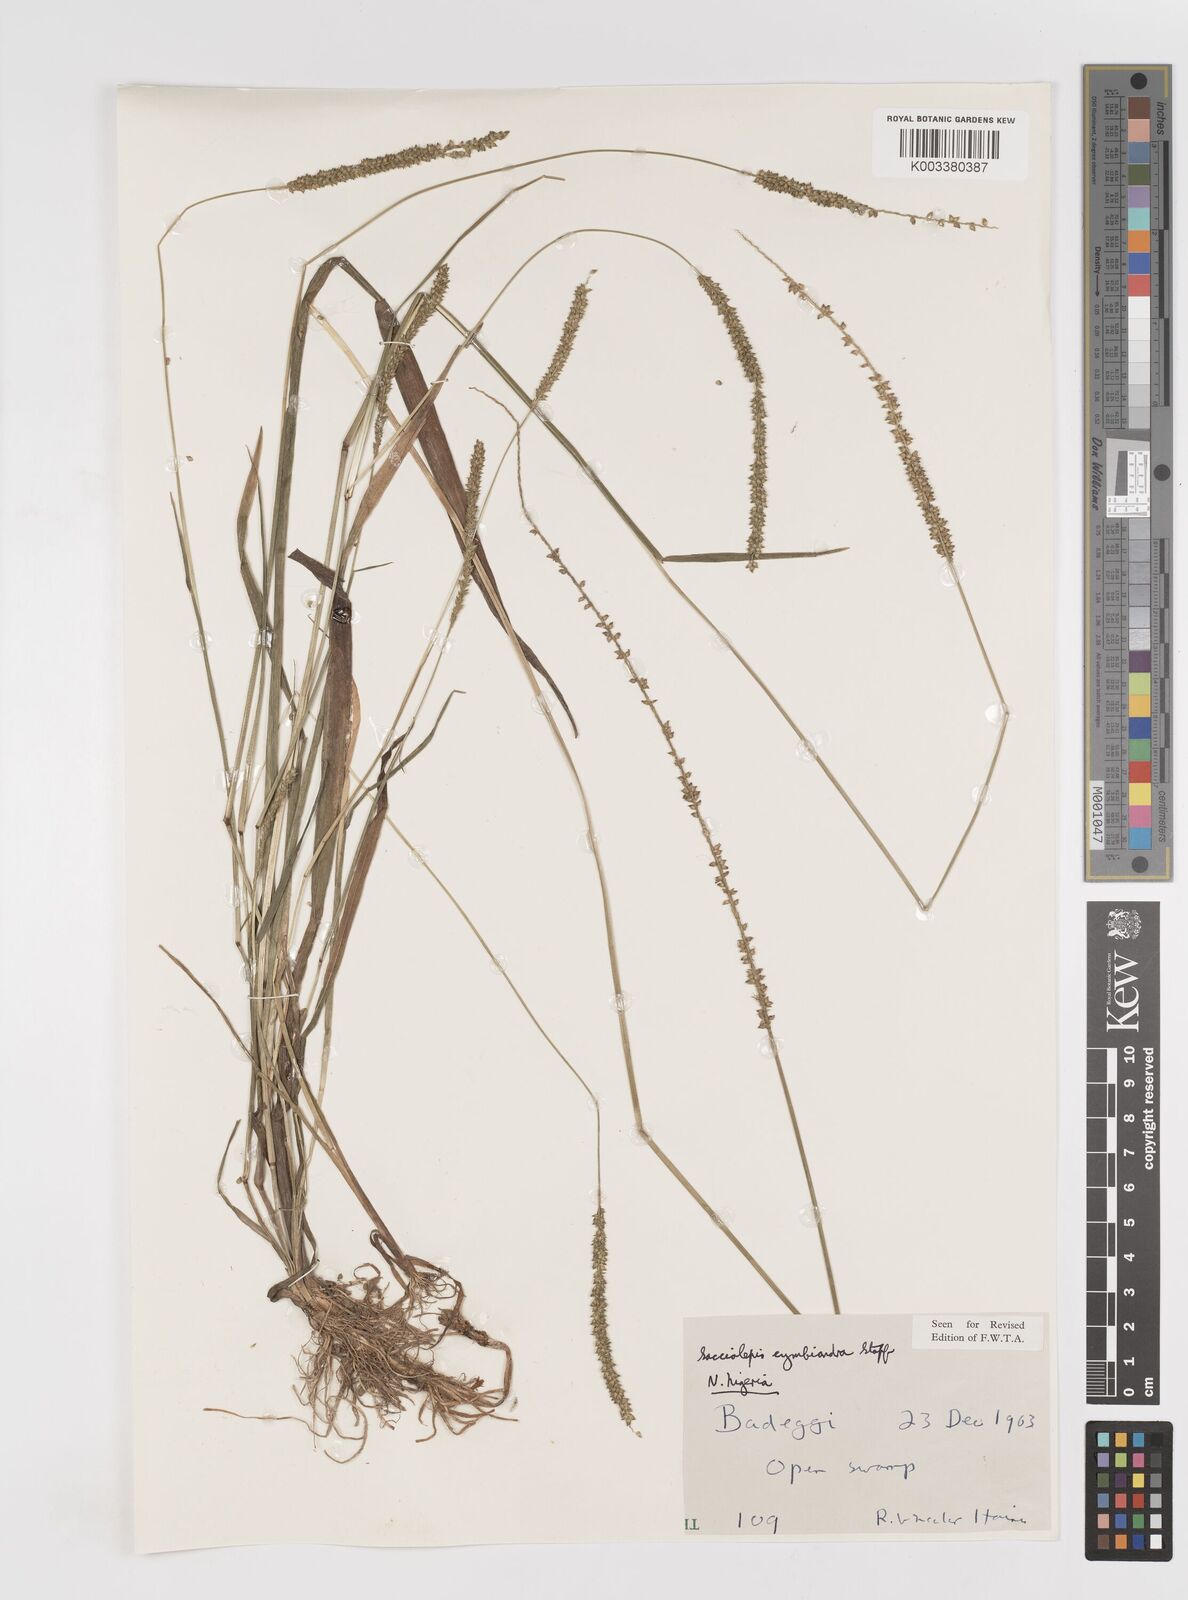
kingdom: Plantae
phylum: Tracheophyta
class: Liliopsida
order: Poales
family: Poaceae
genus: Sacciolepis
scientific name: Sacciolepis cymbiandra
